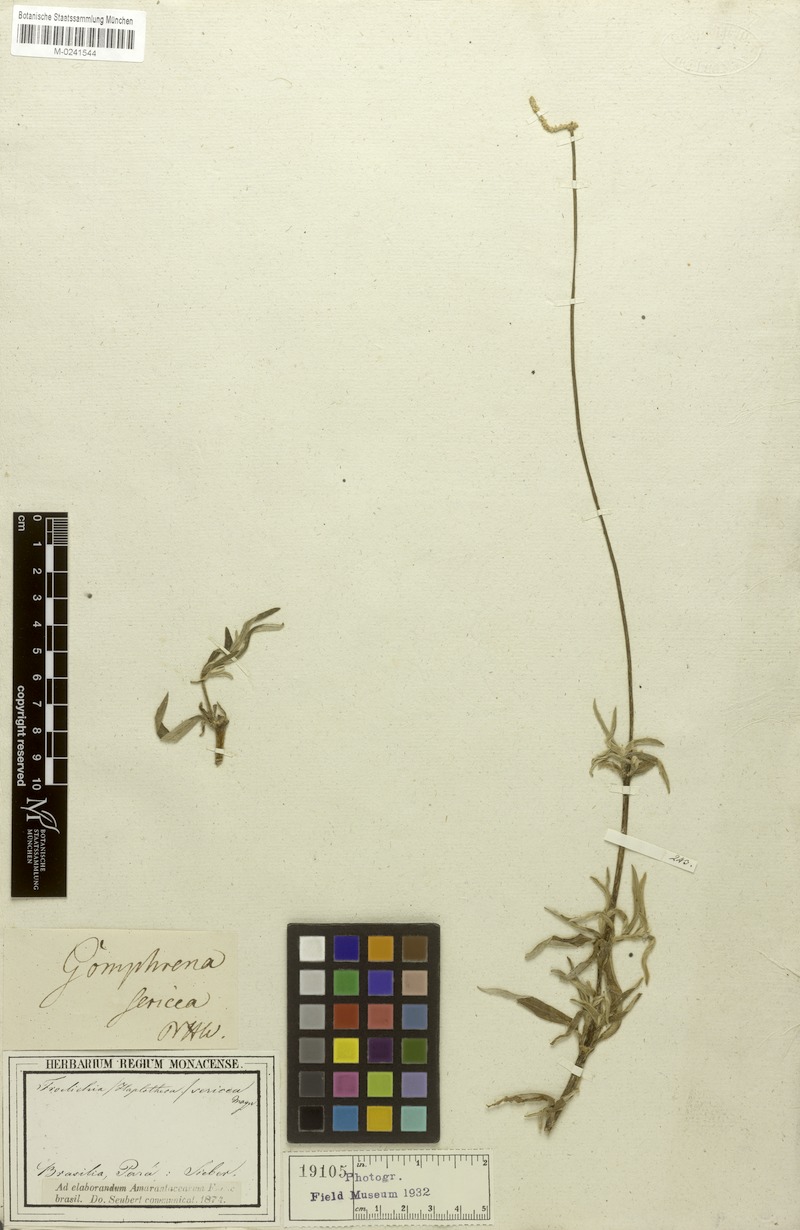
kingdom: Plantae
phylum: Tracheophyta
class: Magnoliopsida
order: Caryophyllales
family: Amaranthaceae
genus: Froelichia
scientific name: Froelichia sericea
